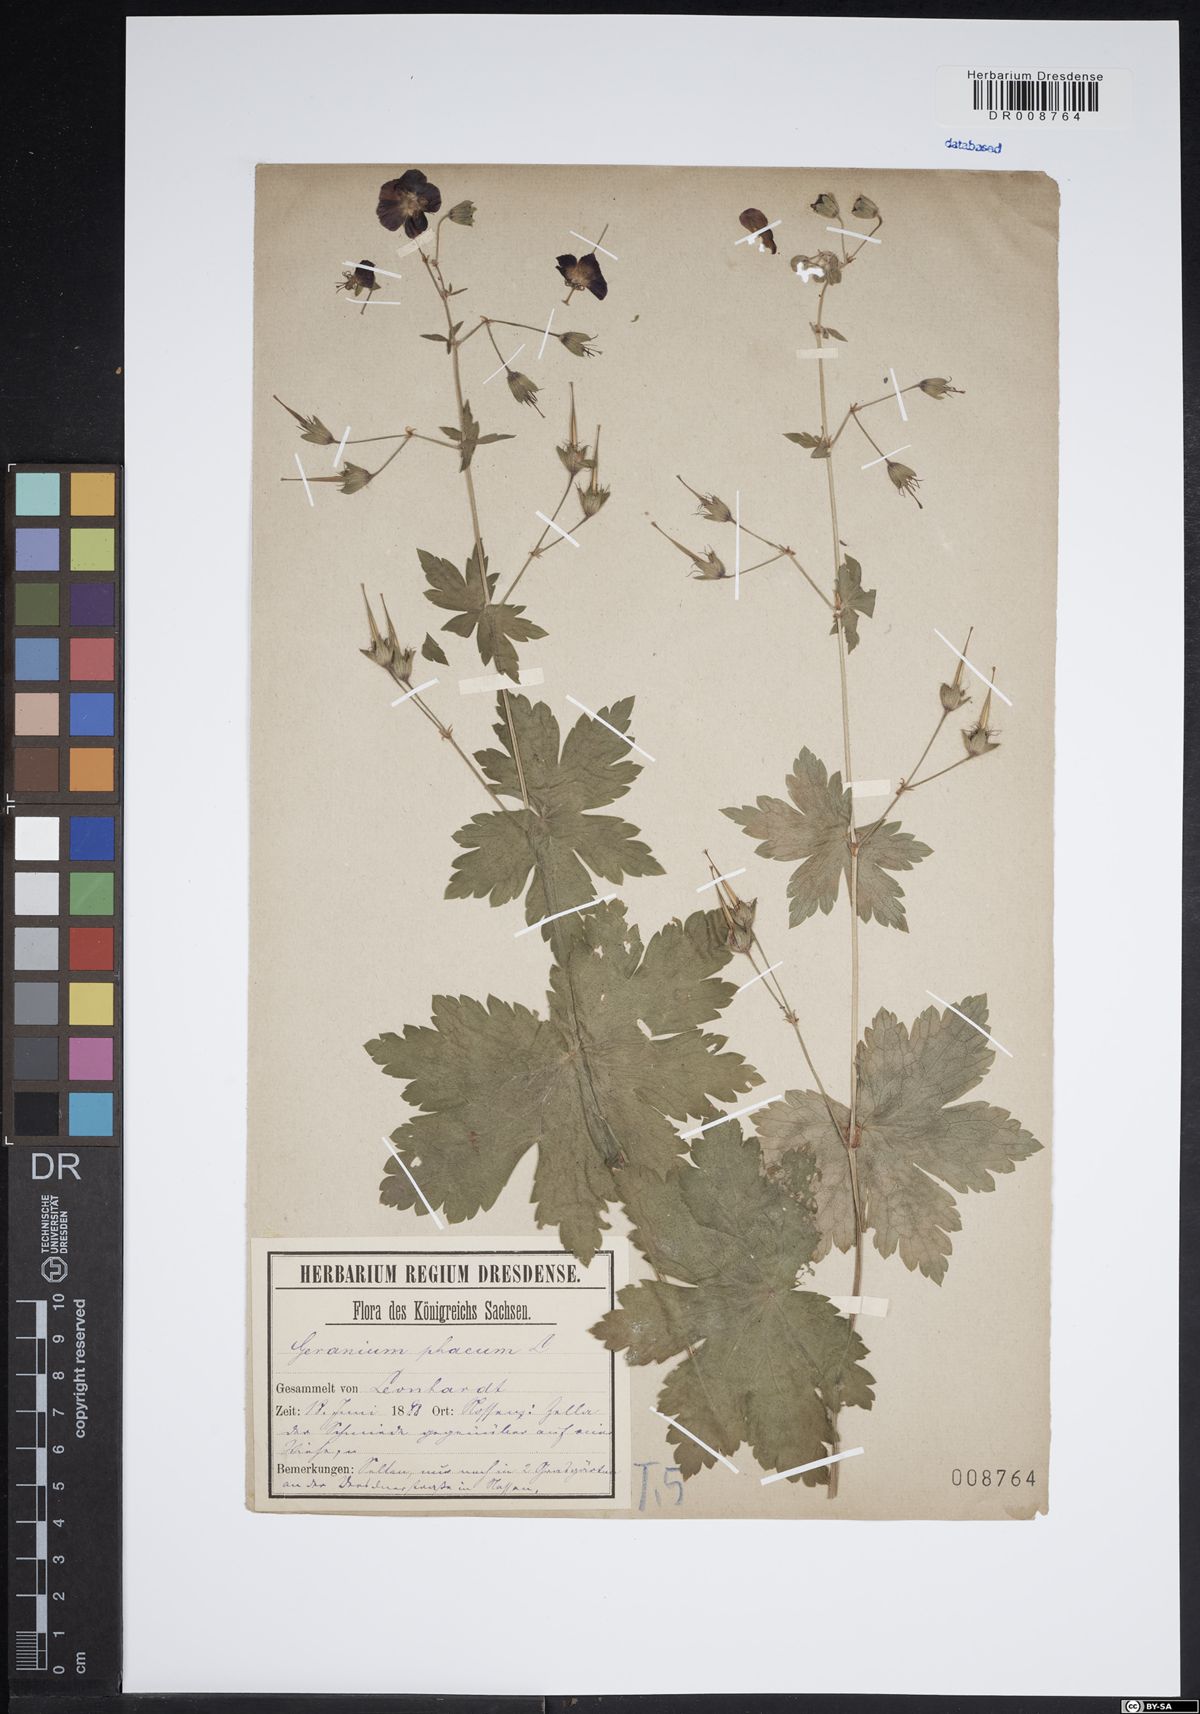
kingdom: Plantae
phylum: Tracheophyta
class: Magnoliopsida
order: Geraniales
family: Geraniaceae
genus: Geranium
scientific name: Geranium phaeum
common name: Dusky crane's-bill
